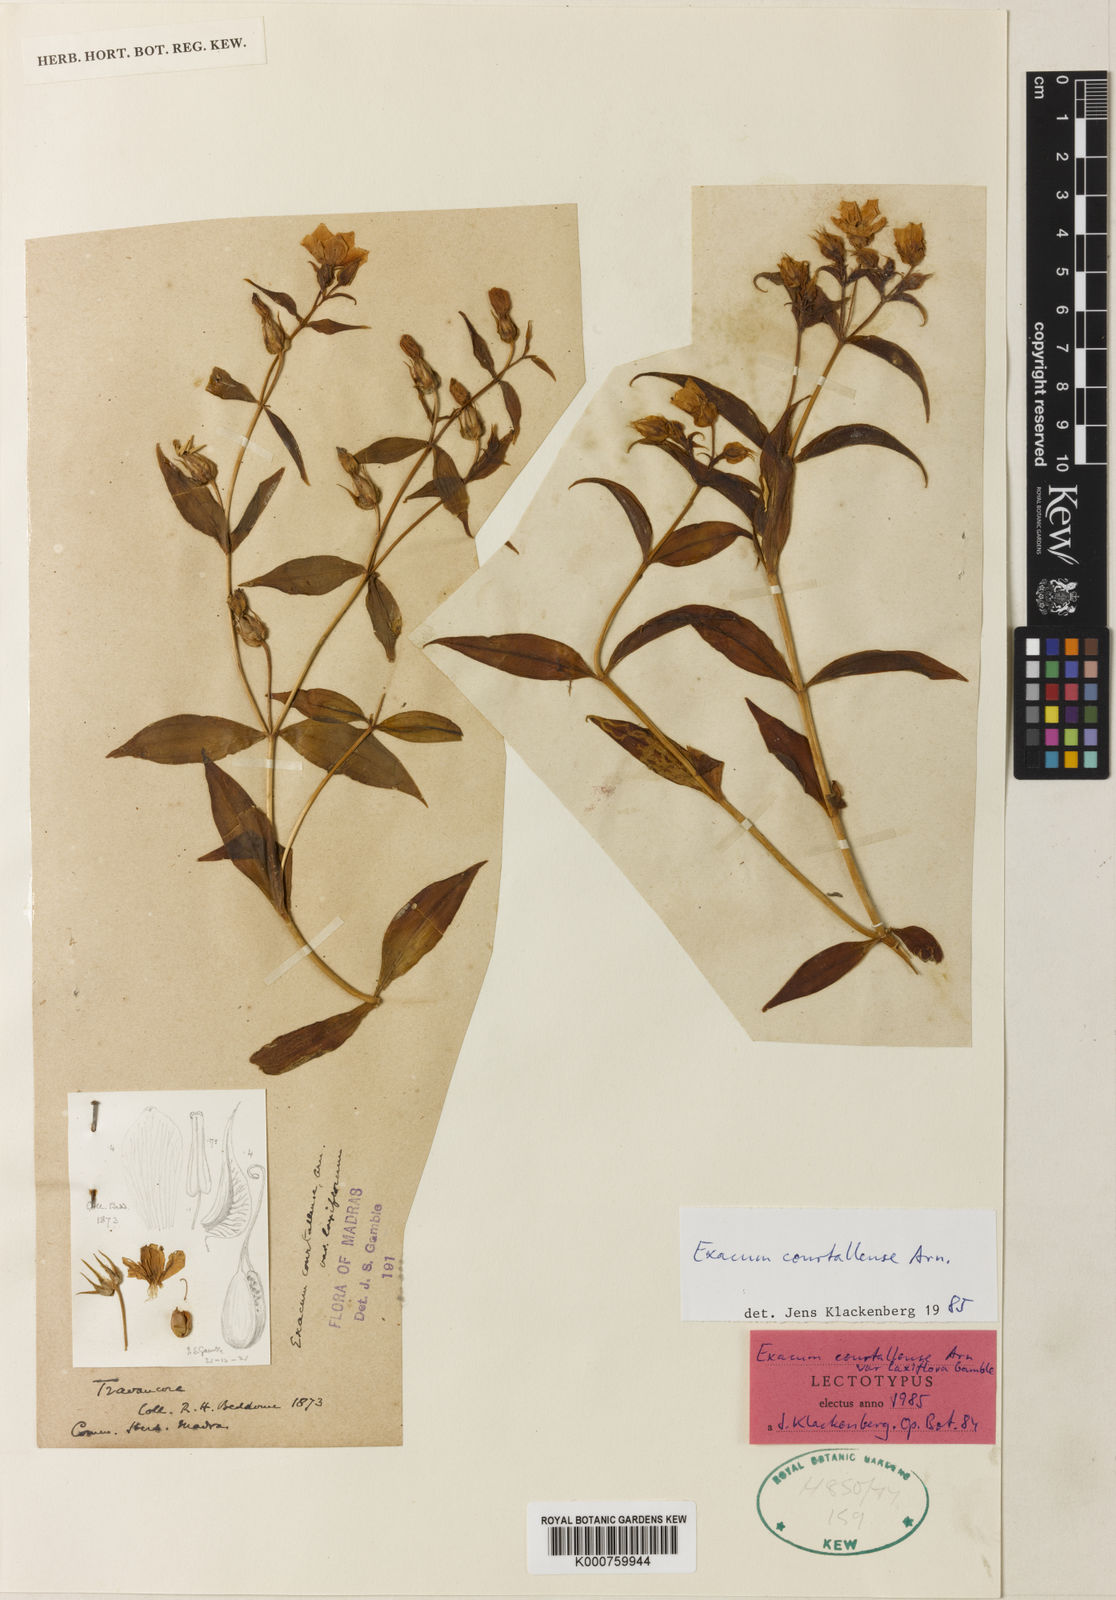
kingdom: Plantae
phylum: Tracheophyta
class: Magnoliopsida
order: Gentianales
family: Gentianaceae
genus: Exacum
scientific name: Exacum courtallense
